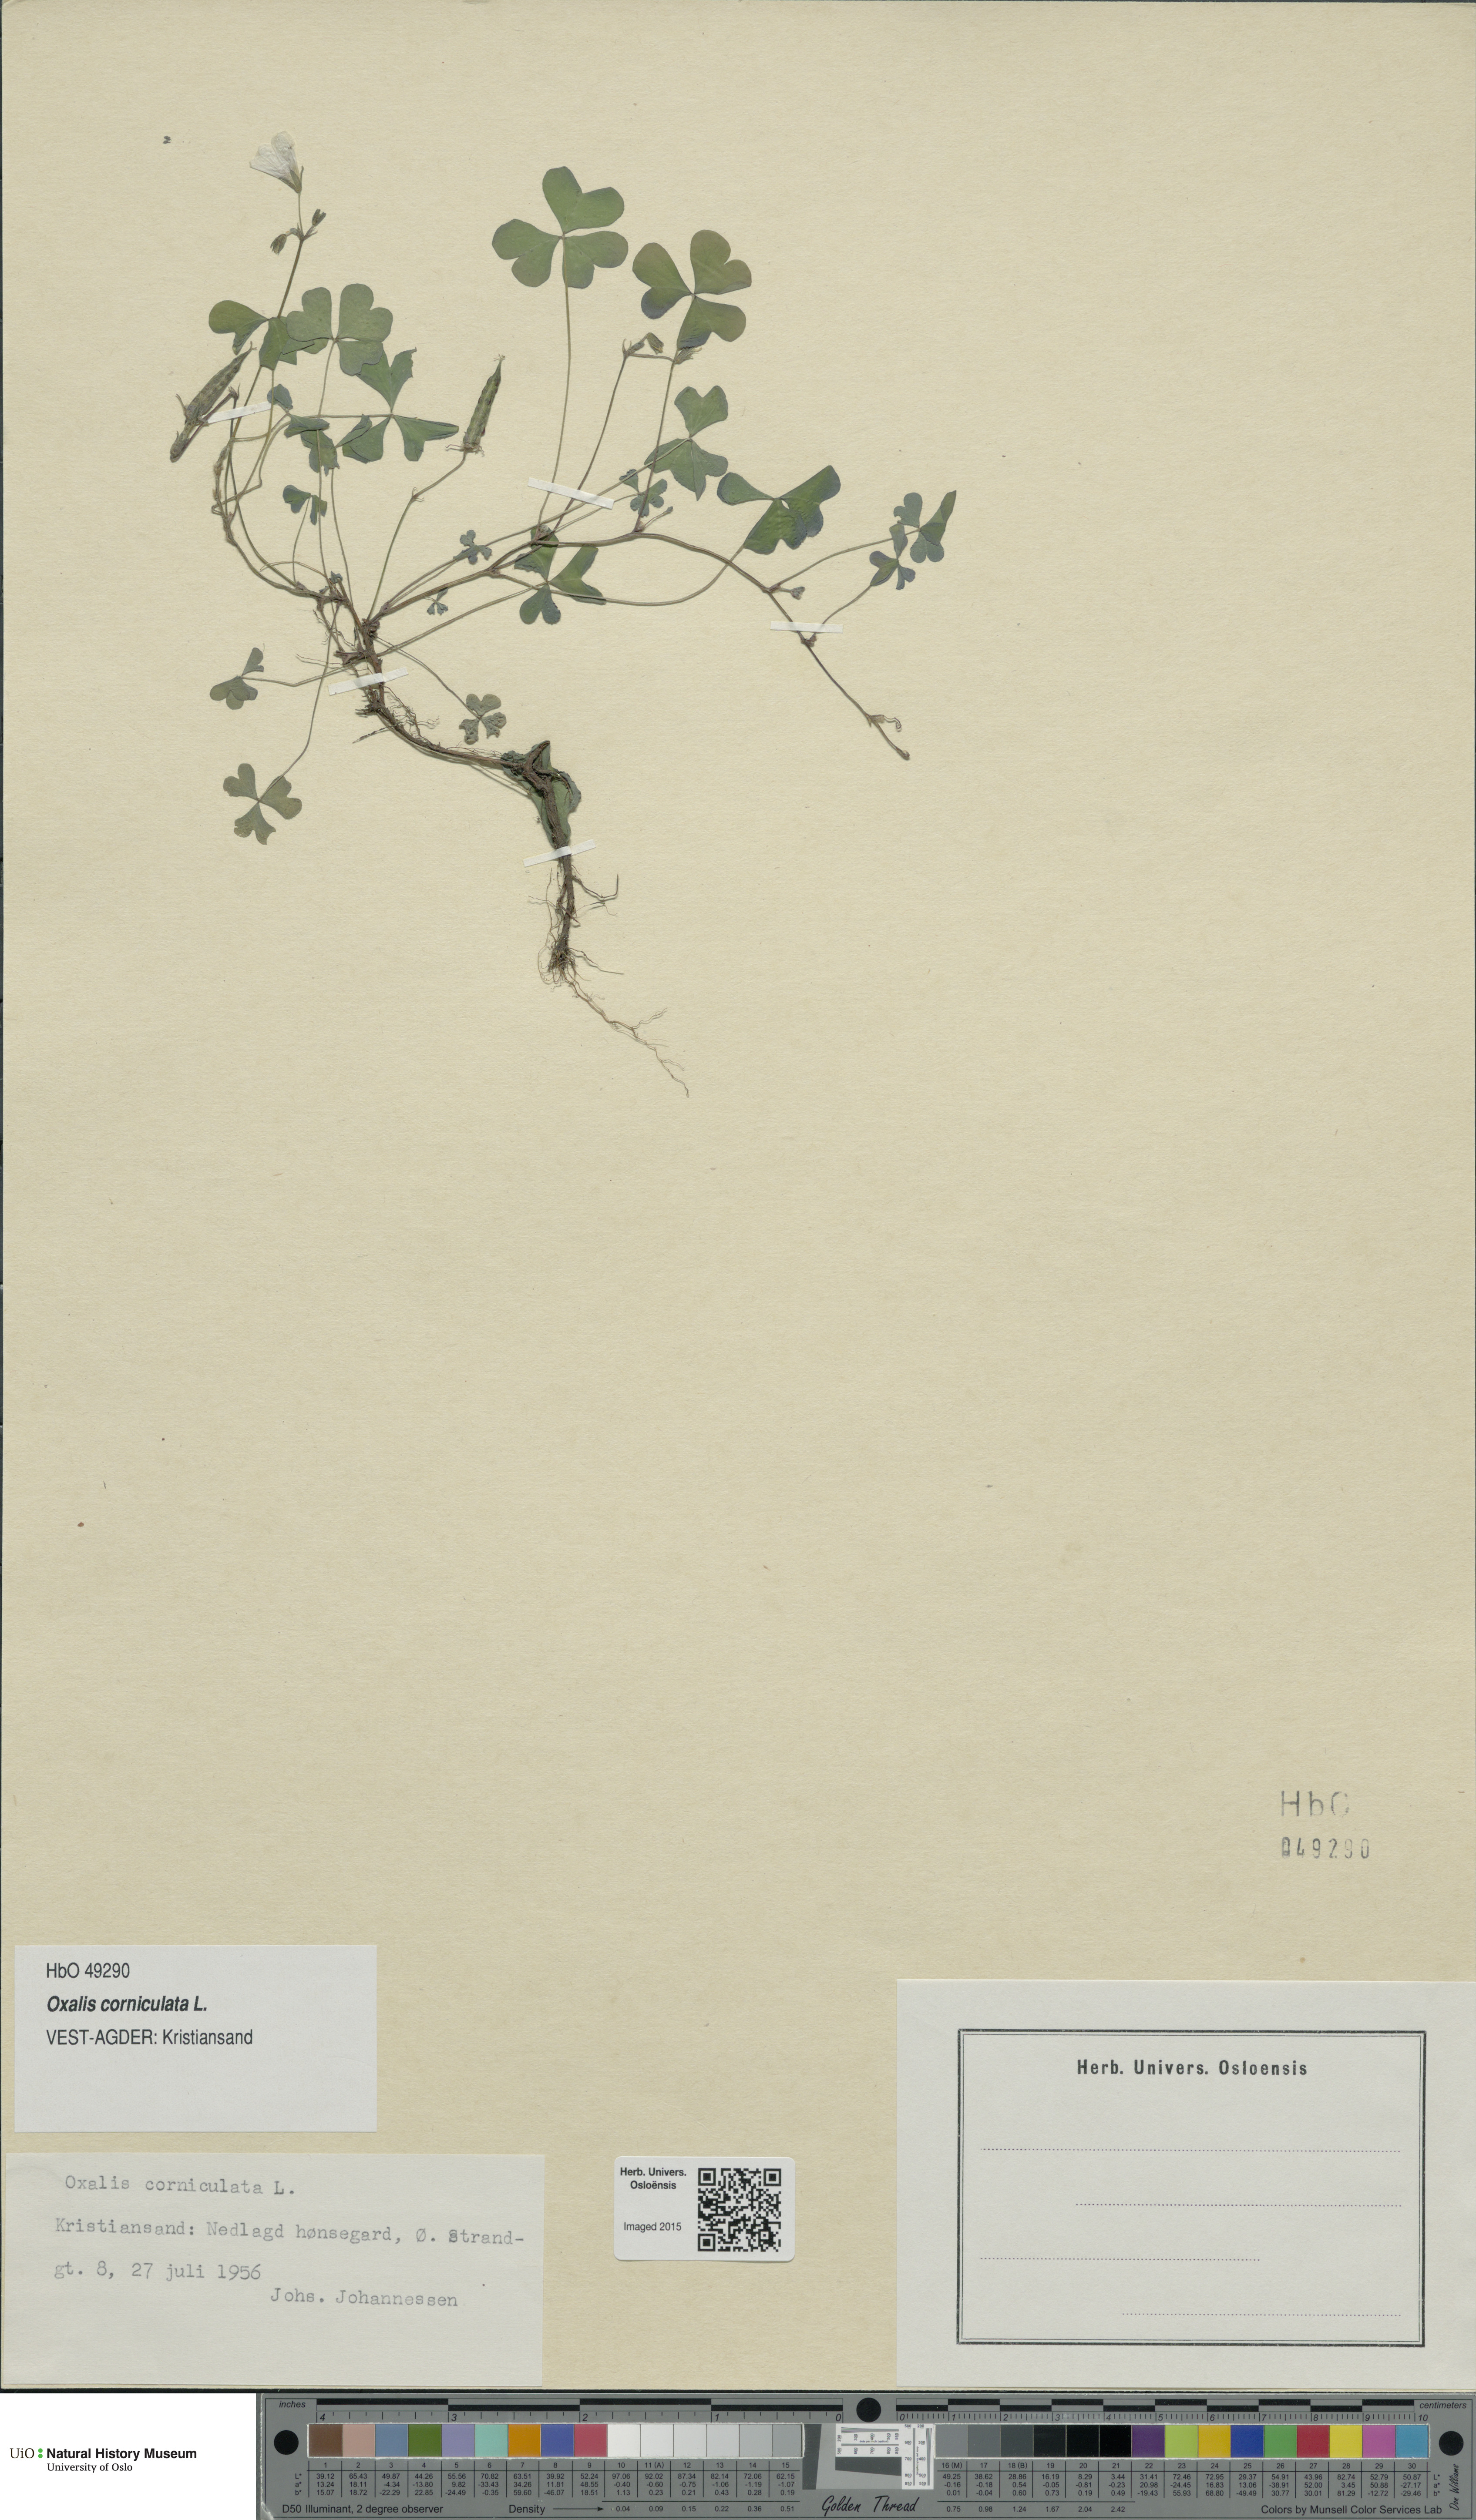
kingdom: Plantae
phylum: Tracheophyta
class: Magnoliopsida
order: Oxalidales
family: Oxalidaceae
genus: Oxalis
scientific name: Oxalis corniculata
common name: Procumbent yellow-sorrel
